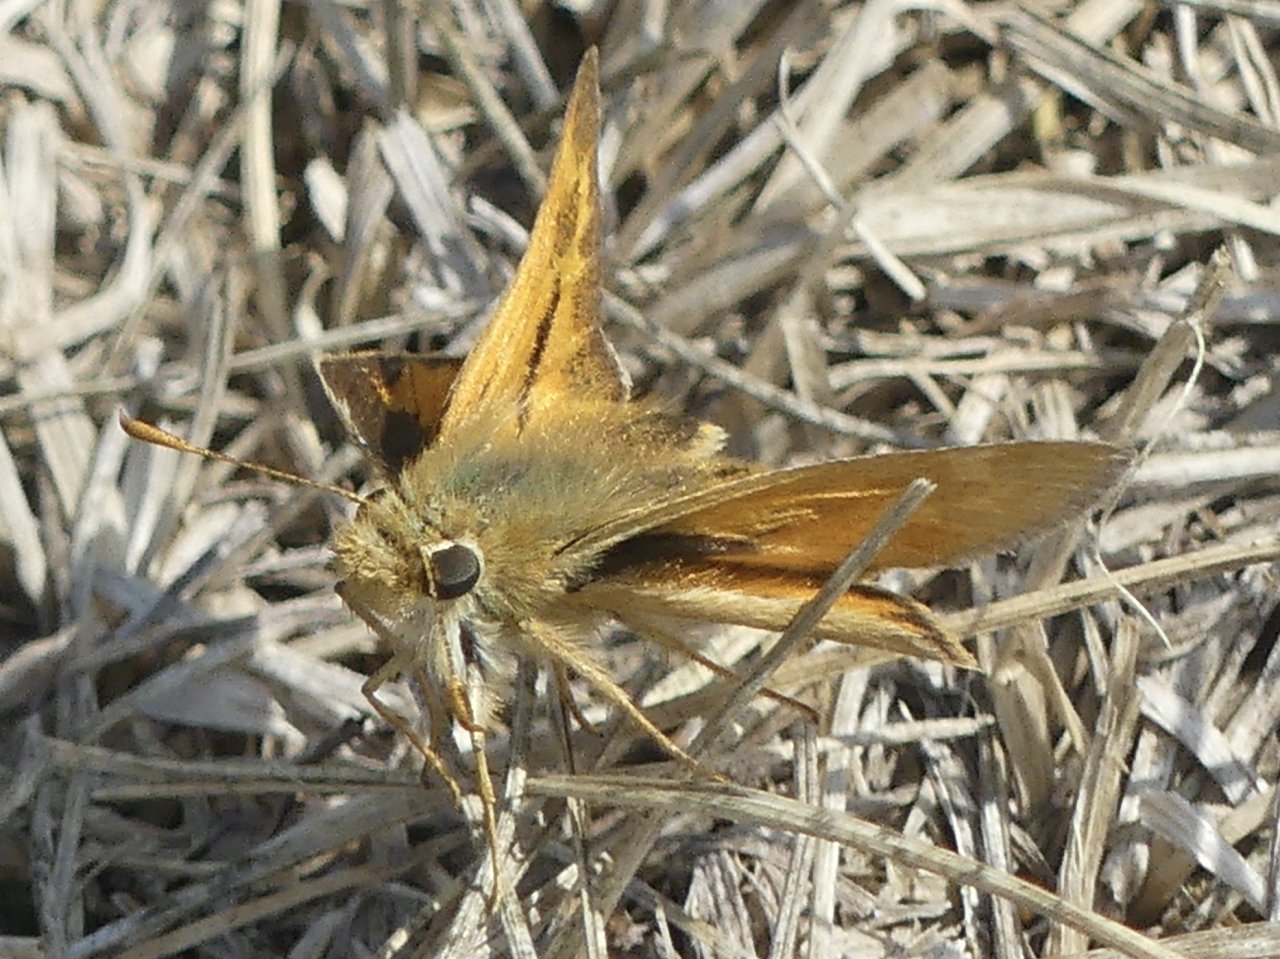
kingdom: Animalia
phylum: Arthropoda
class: Insecta
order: Lepidoptera
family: Hesperiidae
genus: Ochlodes
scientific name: Ochlodes sylvanoides
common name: Woodland Skipper
